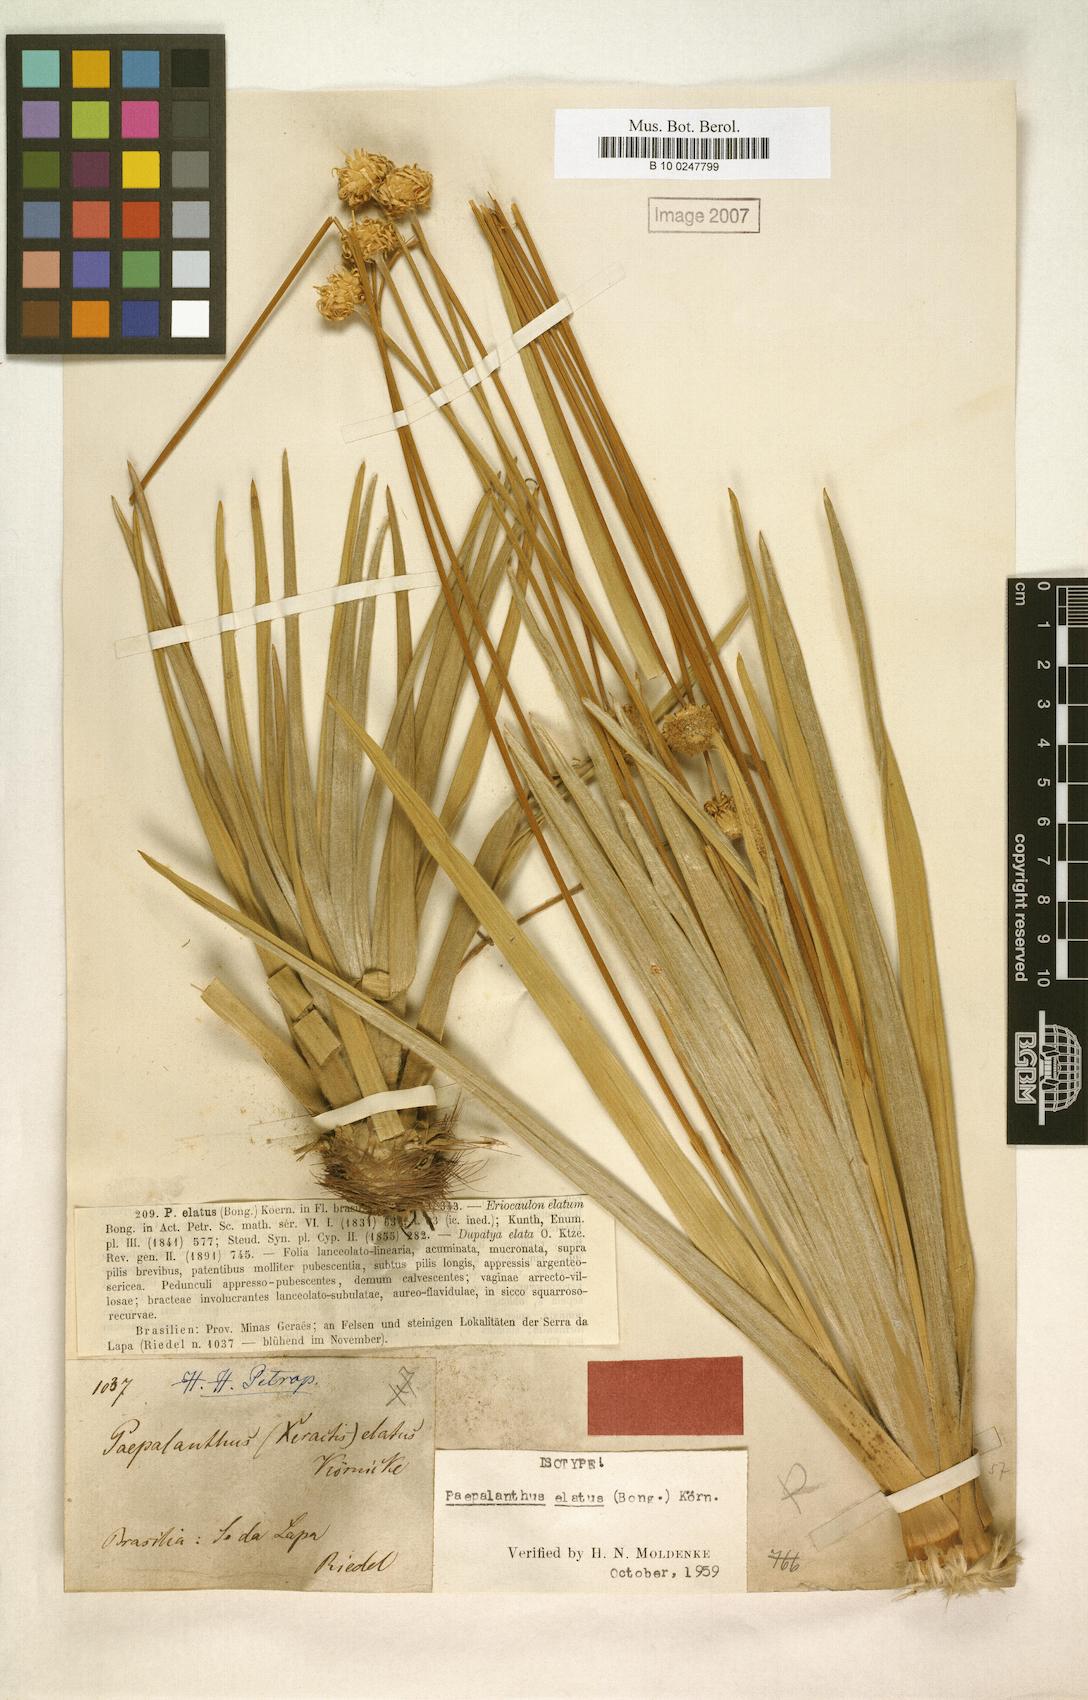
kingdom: Plantae
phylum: Tracheophyta
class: Liliopsida
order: Poales
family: Eriocaulaceae
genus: Paepalanthus
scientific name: Paepalanthus elatus
